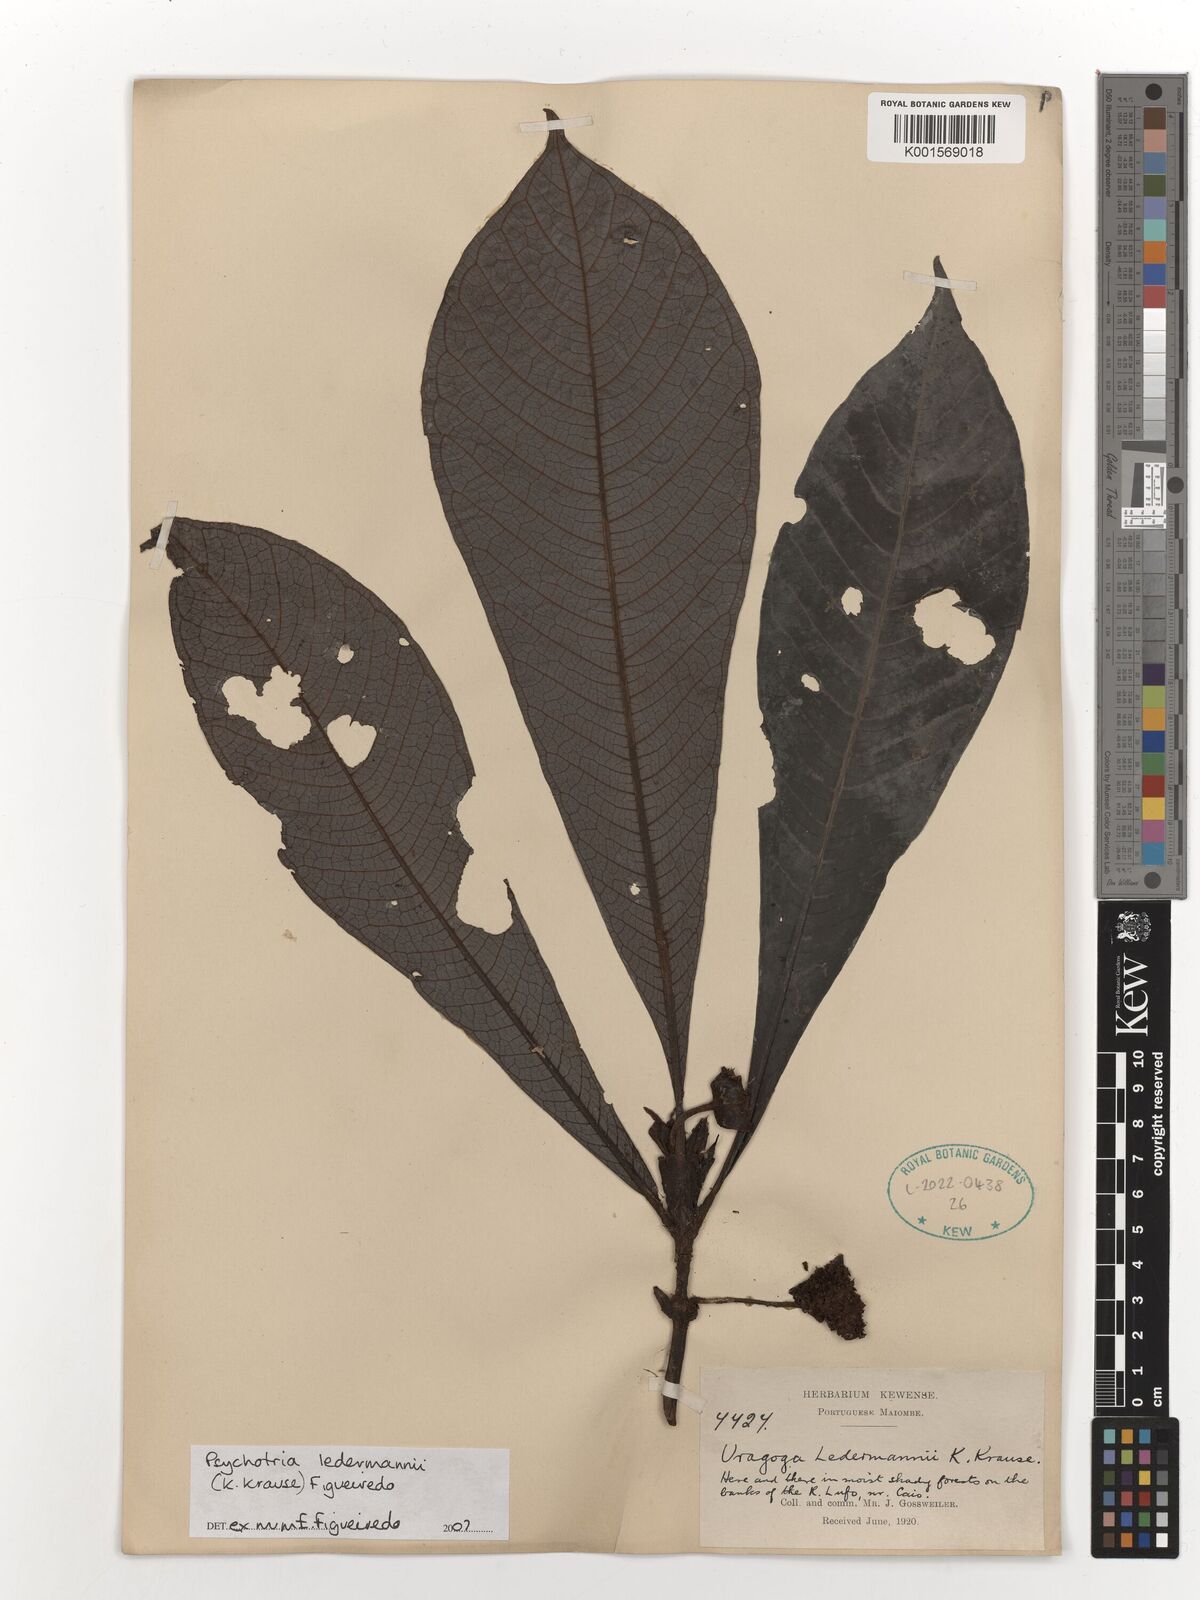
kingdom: Plantae
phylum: Tracheophyta
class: Magnoliopsida
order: Gentianales
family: Rubiaceae
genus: Psychotria
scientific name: Psychotria ledermannii
